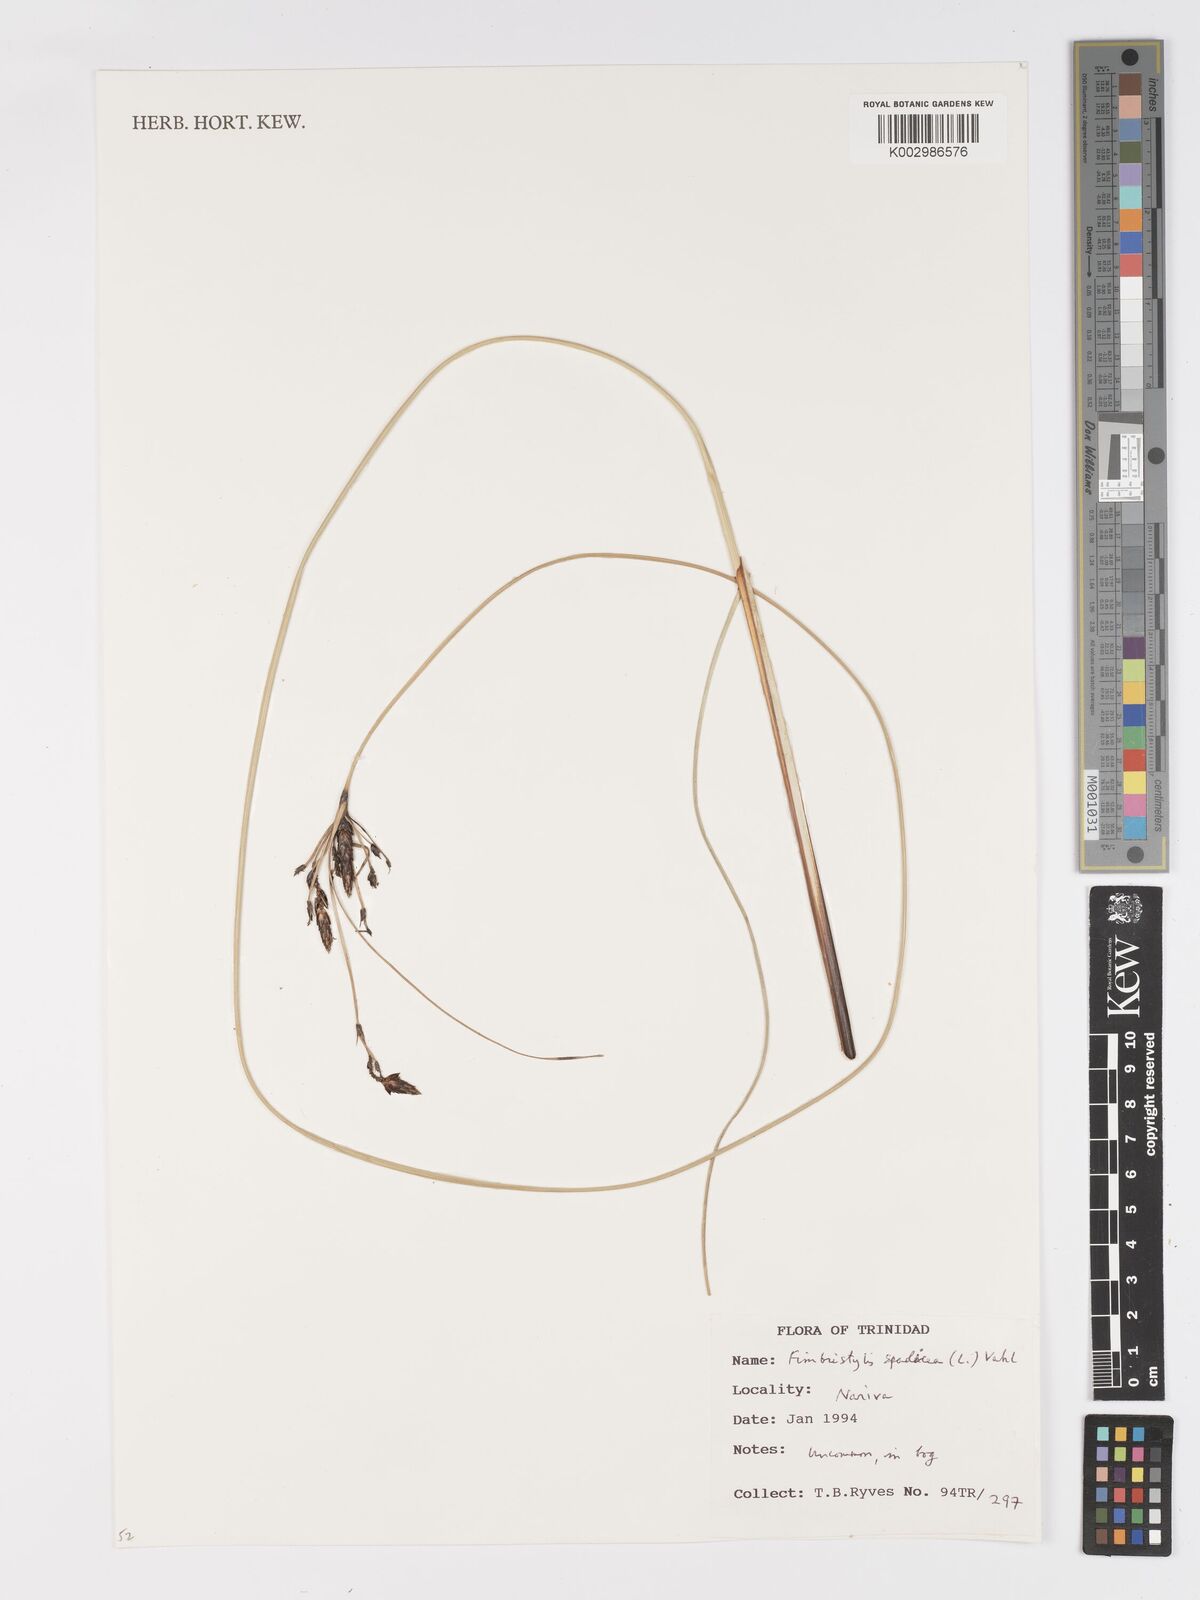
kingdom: Plantae
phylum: Tracheophyta
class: Liliopsida
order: Poales
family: Cyperaceae
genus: Fimbristylis
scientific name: Fimbristylis spadicea
